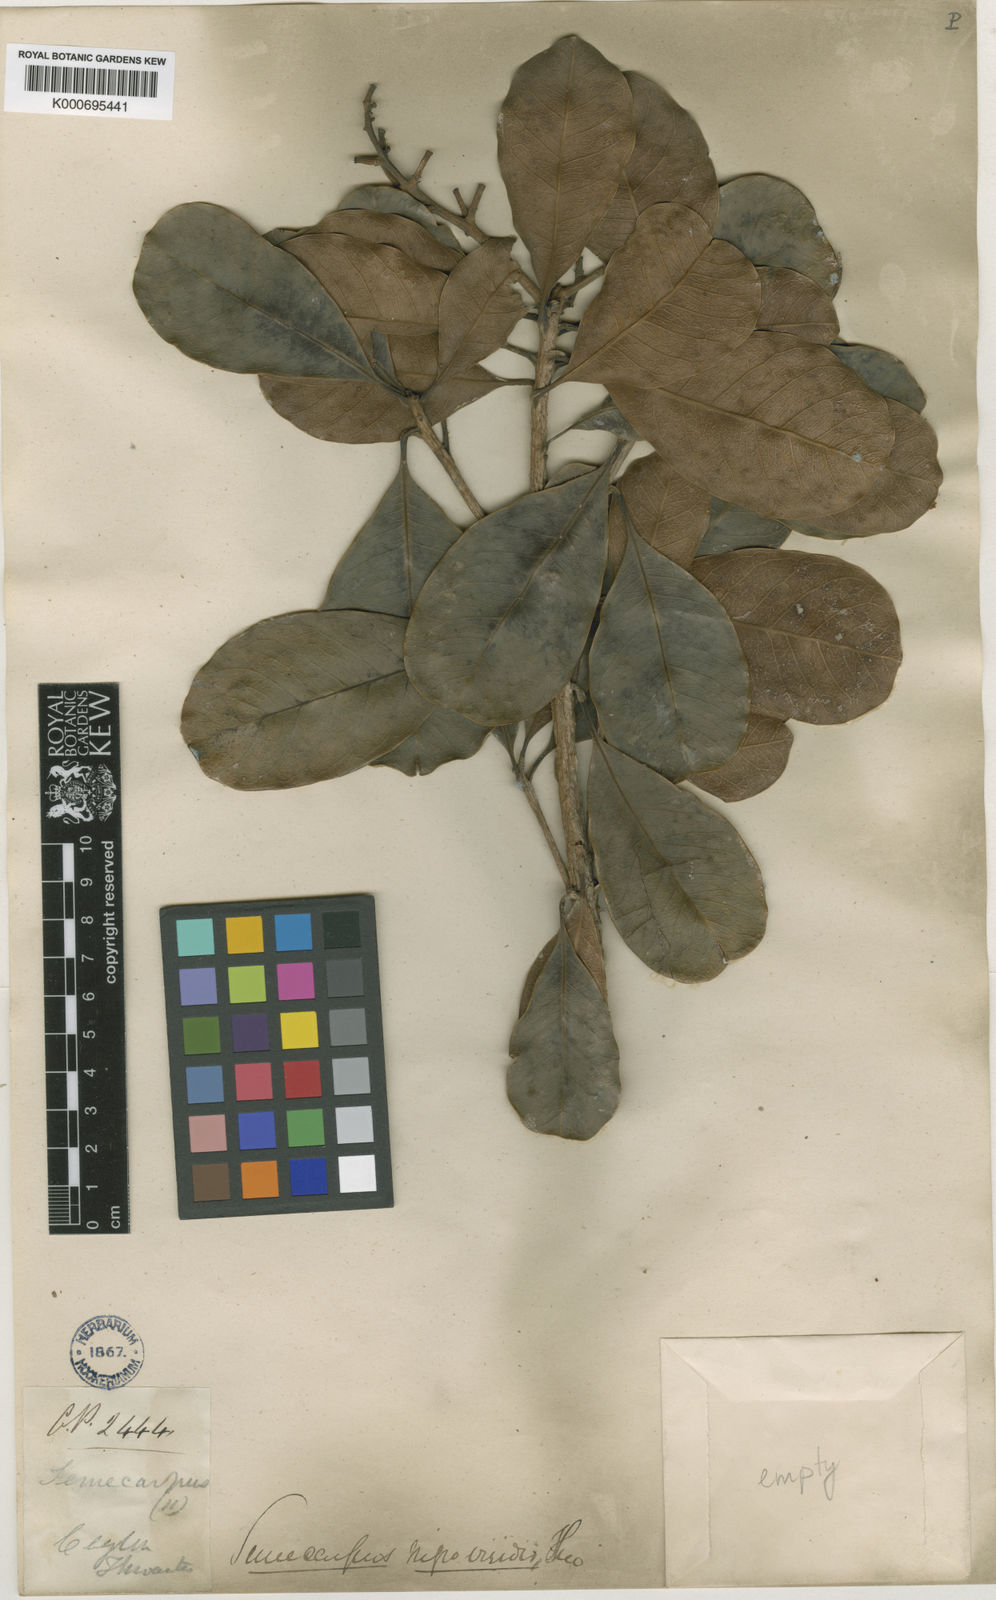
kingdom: Plantae
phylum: Tracheophyta
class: Magnoliopsida
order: Sapindales
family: Anacardiaceae
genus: Semecarpus
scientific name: Semecarpus nigroviridis
